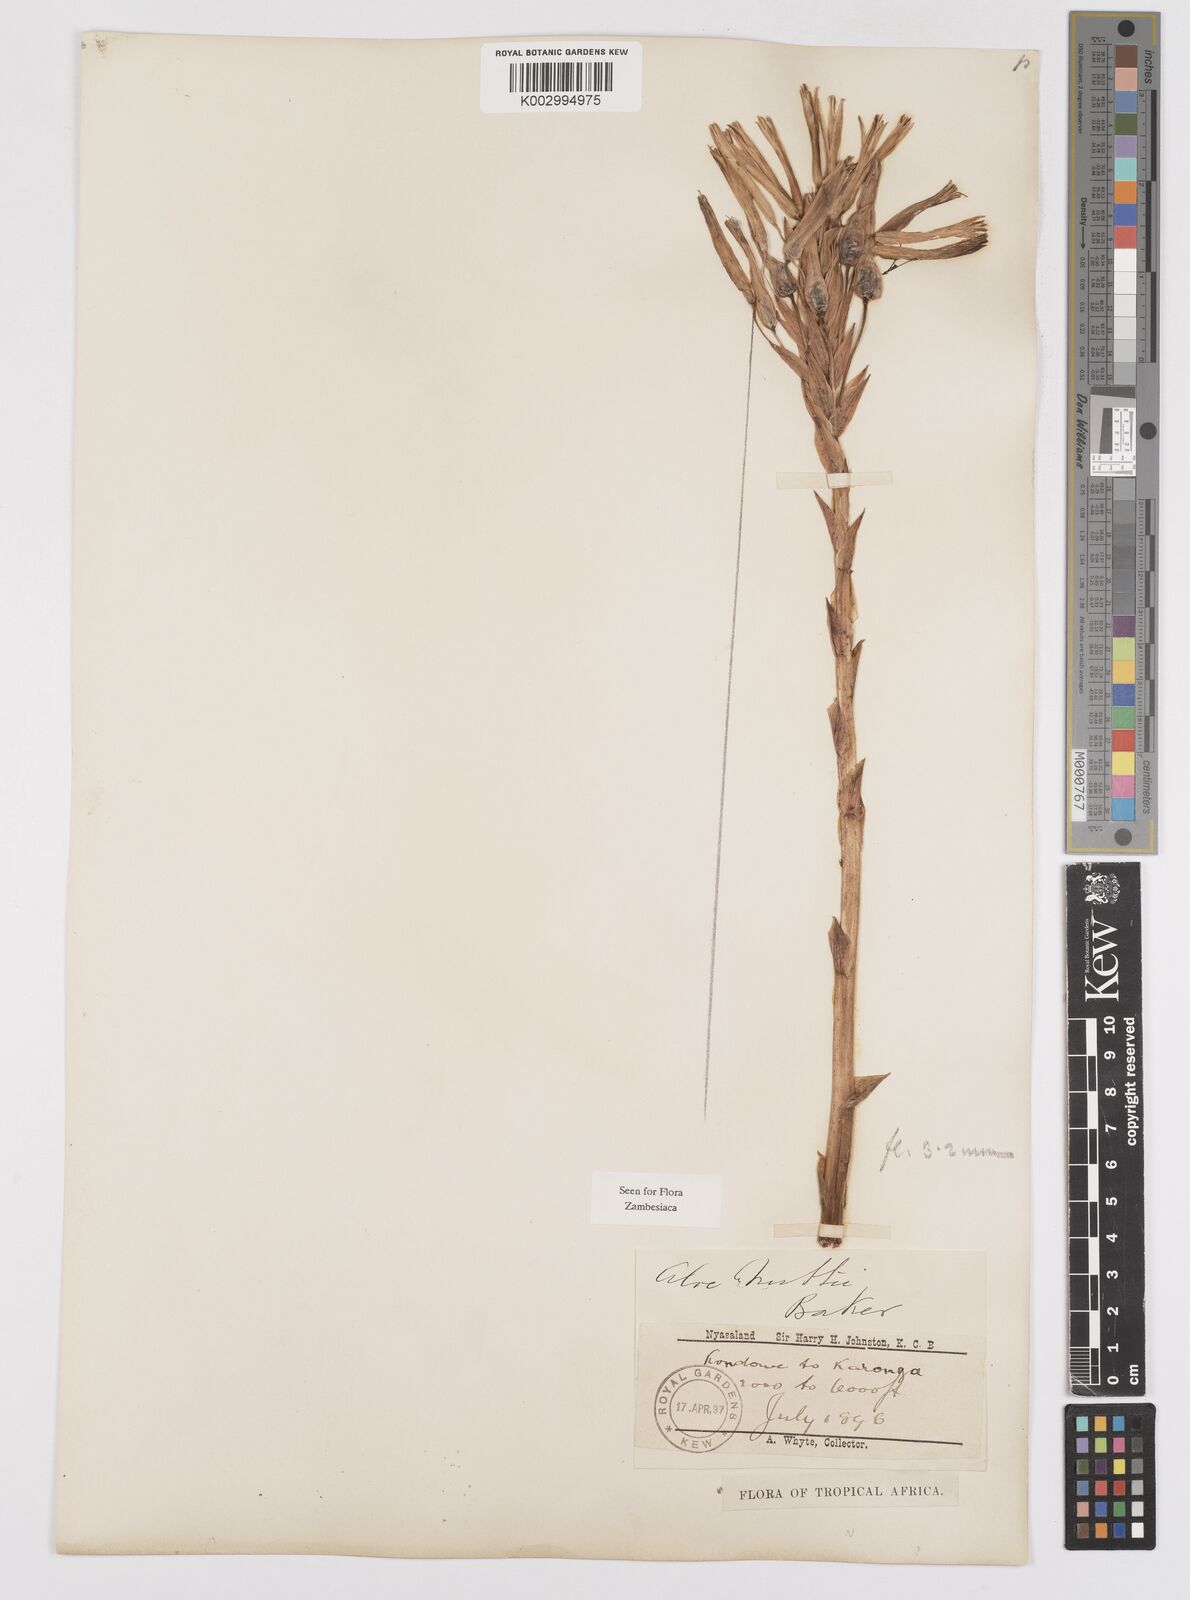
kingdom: Plantae
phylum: Tracheophyta
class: Liliopsida
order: Asparagales
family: Asphodelaceae
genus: Aloe
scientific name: Aloe nuttii
